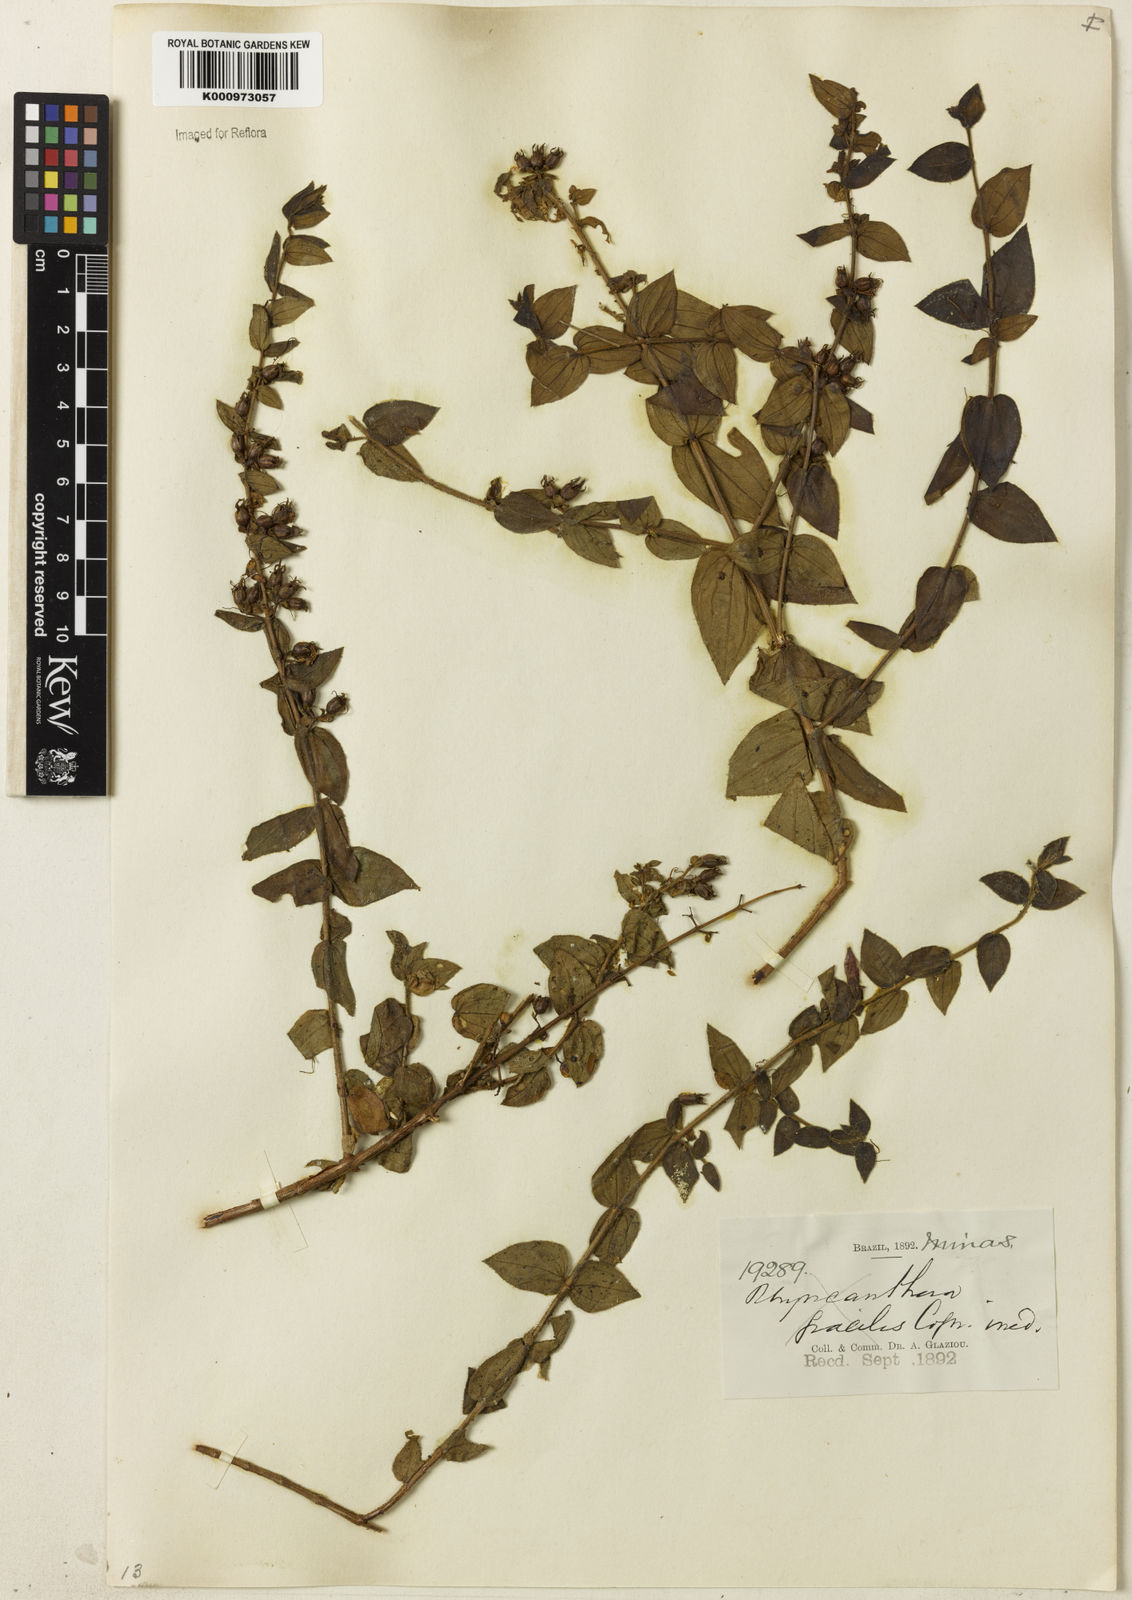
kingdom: Plantae
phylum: Tracheophyta
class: Magnoliopsida
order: Myrtales
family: Melastomataceae
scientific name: Melastomataceae
